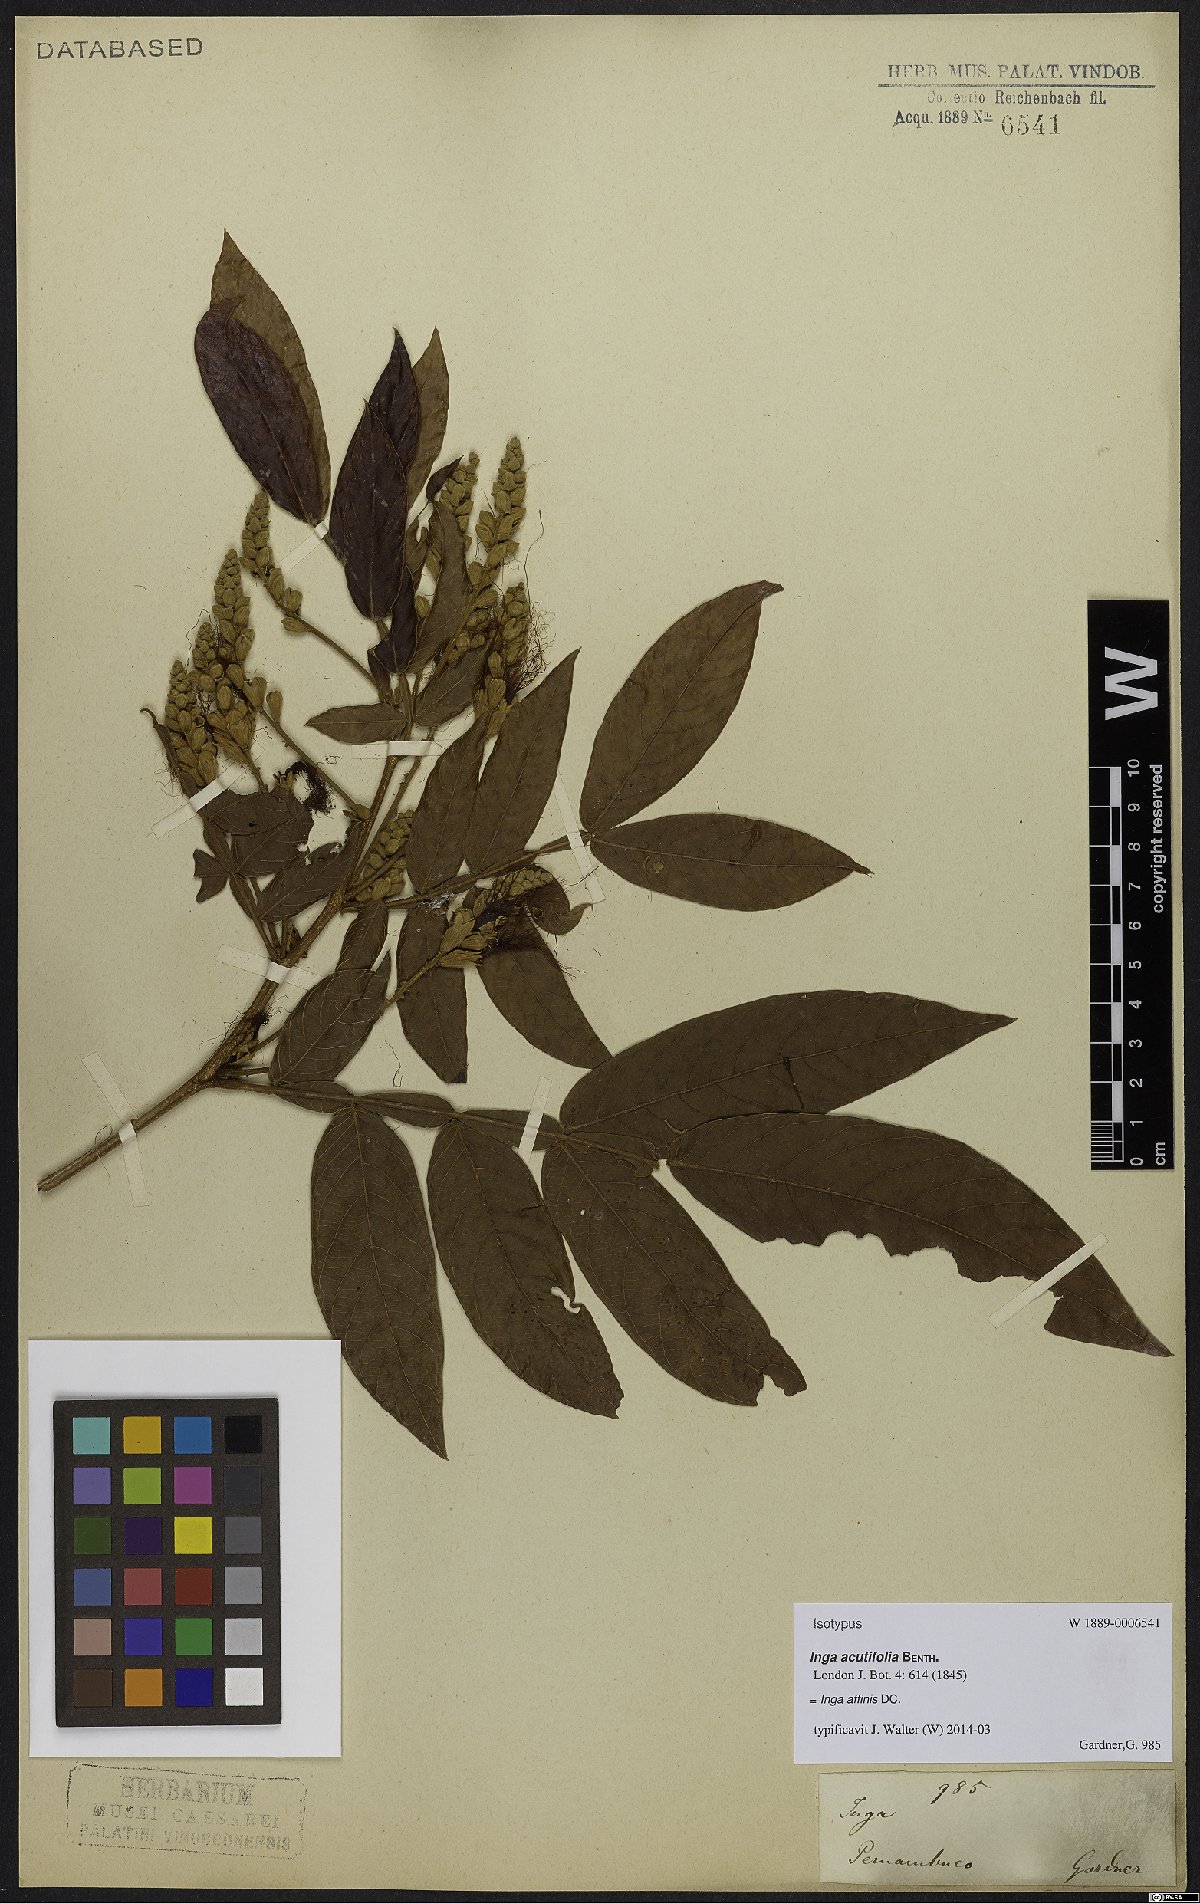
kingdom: Plantae
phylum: Tracheophyta
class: Magnoliopsida
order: Fabales
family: Fabaceae
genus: Inga
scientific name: Inga affinis
